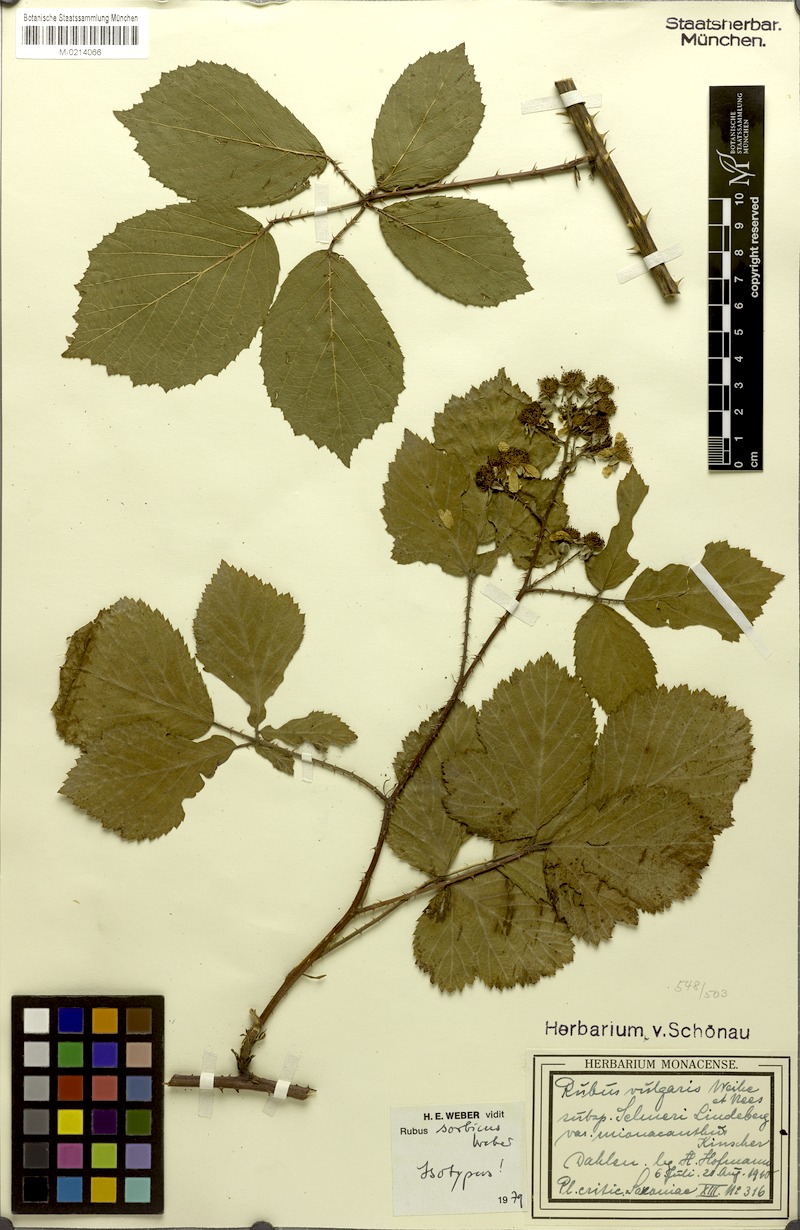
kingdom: Plantae
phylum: Tracheophyta
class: Magnoliopsida
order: Rosales
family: Rosaceae
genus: Rubus
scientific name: Rubus sorbicus
